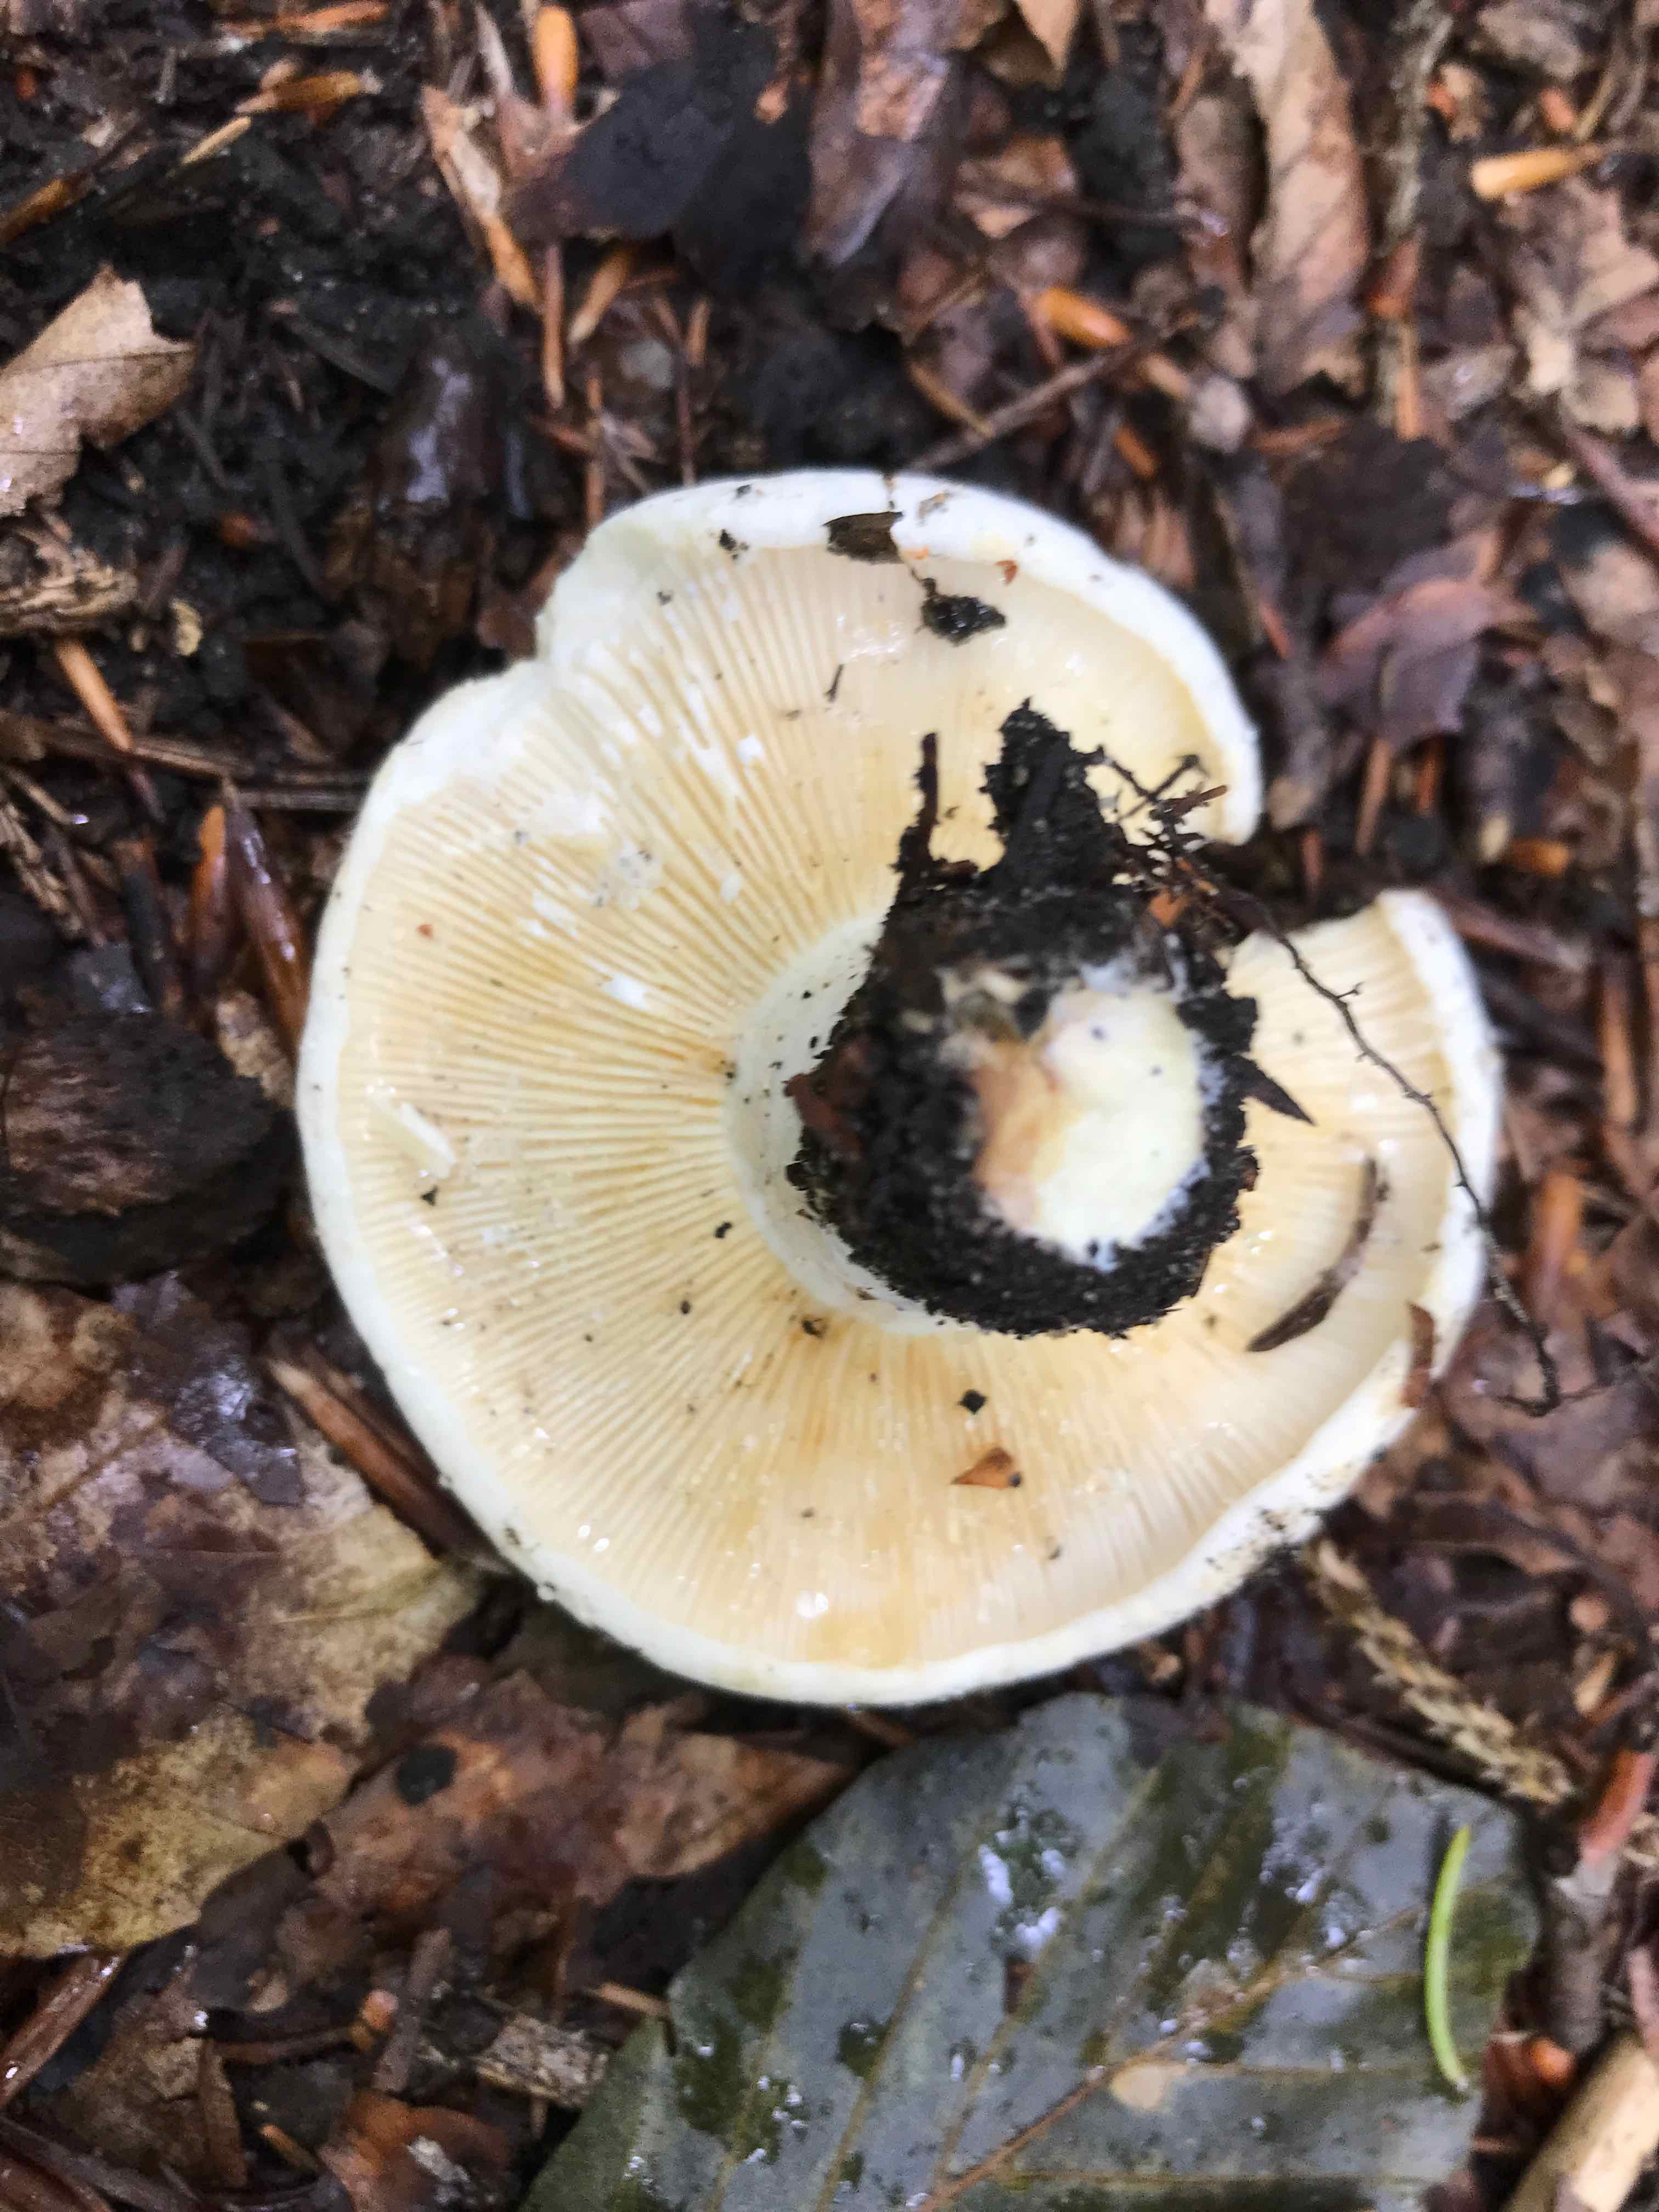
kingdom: Fungi
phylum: Basidiomycota
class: Agaricomycetes
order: Russulales
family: Russulaceae
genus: Lactifluus
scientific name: Lactifluus bertillonii
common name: blødfiltet mælkehat
